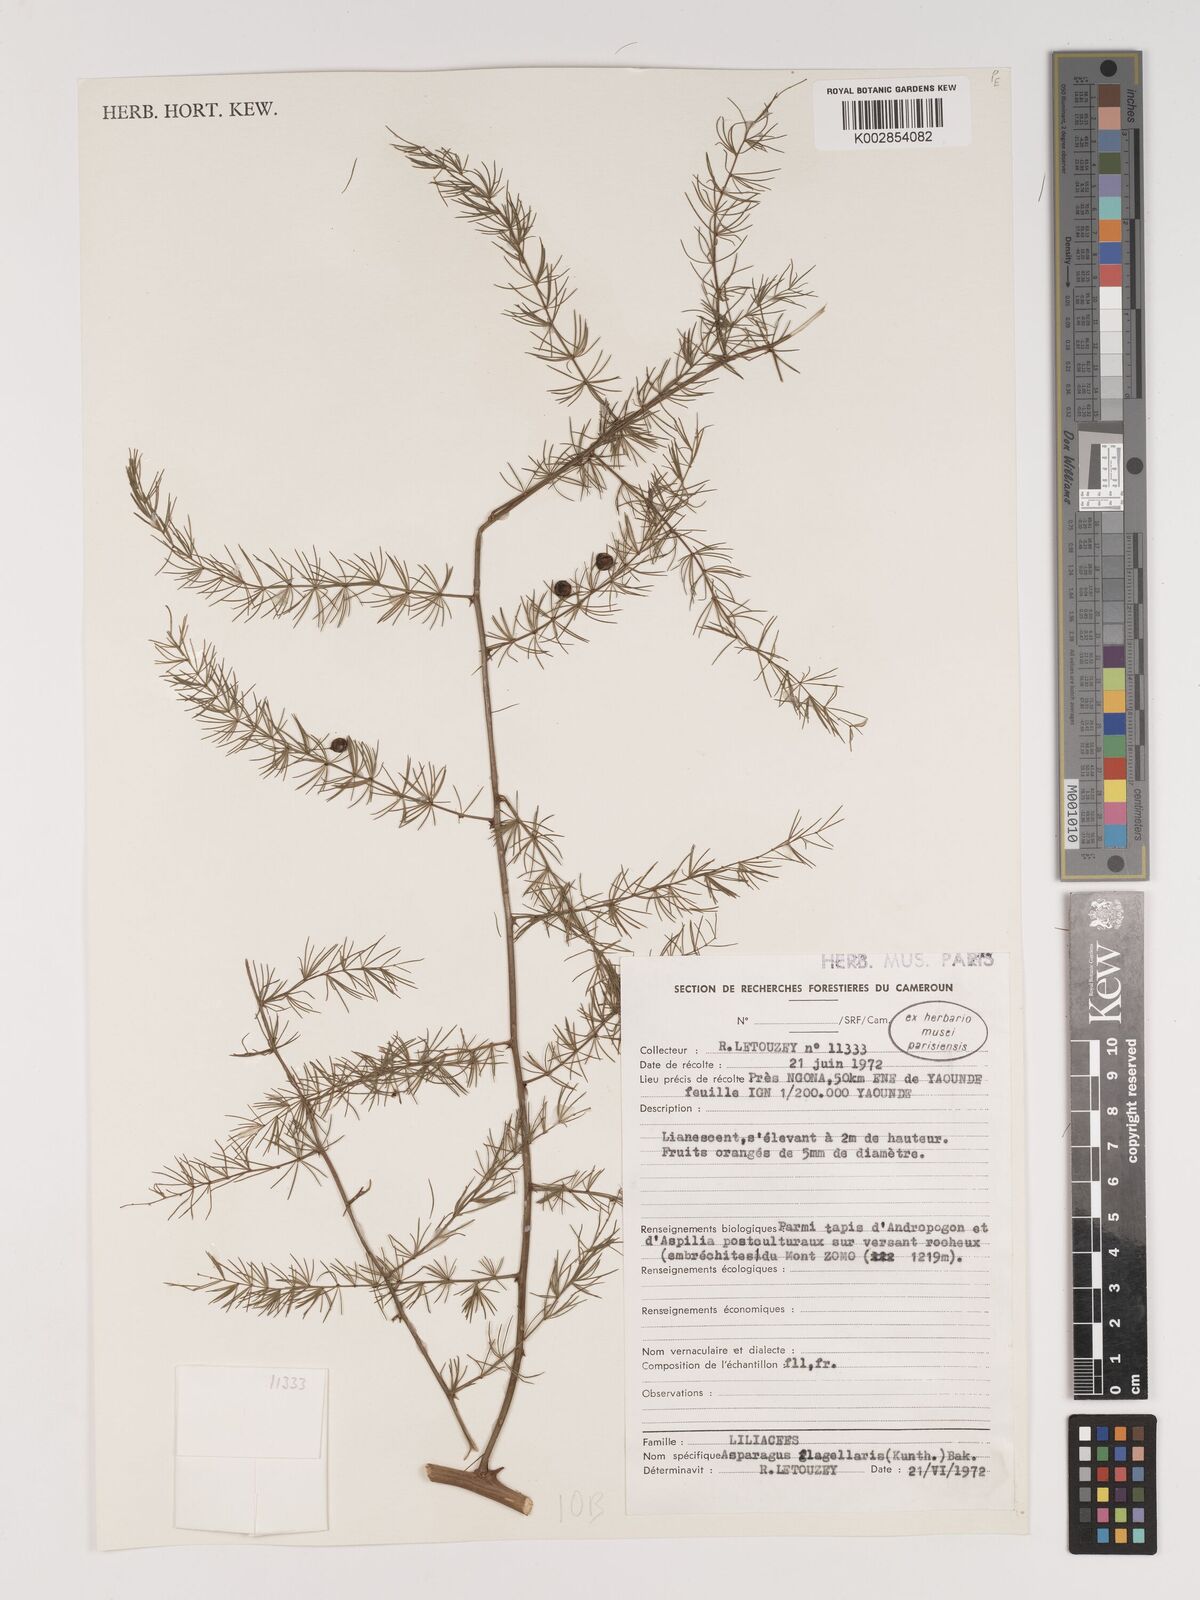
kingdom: Plantae
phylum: Tracheophyta
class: Liliopsida
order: Asparagales
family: Asparagaceae
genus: Asparagus
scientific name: Asparagus flagellaris
